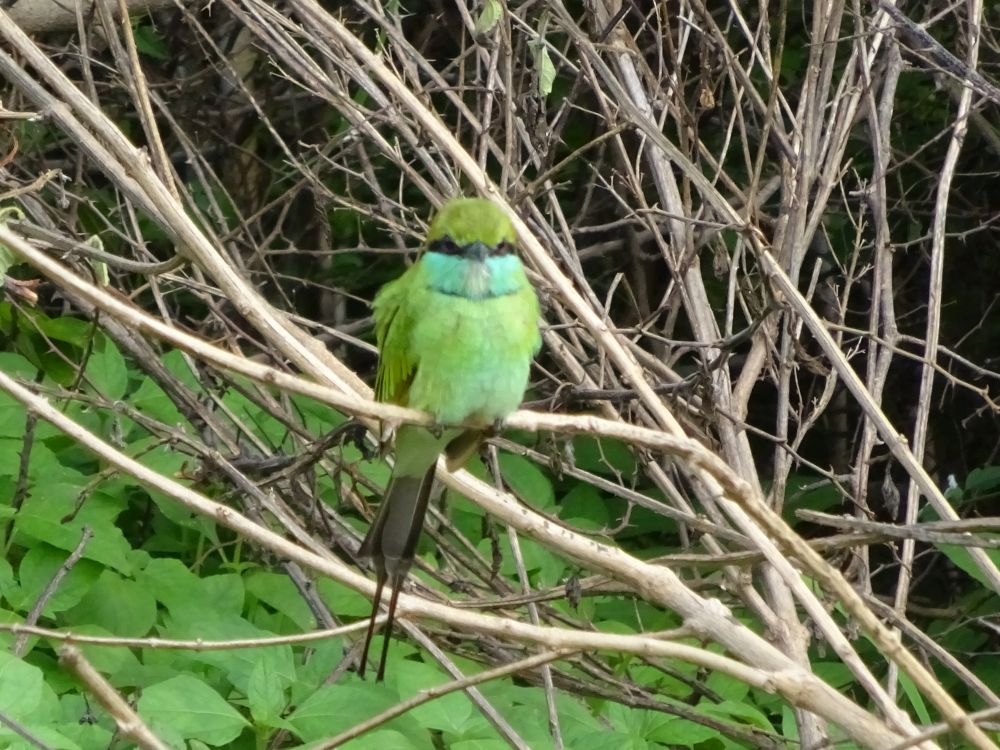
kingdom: Animalia
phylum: Chordata
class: Aves
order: Coraciiformes
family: Meropidae
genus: Merops
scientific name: Merops orientalis
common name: Green bee-eater
